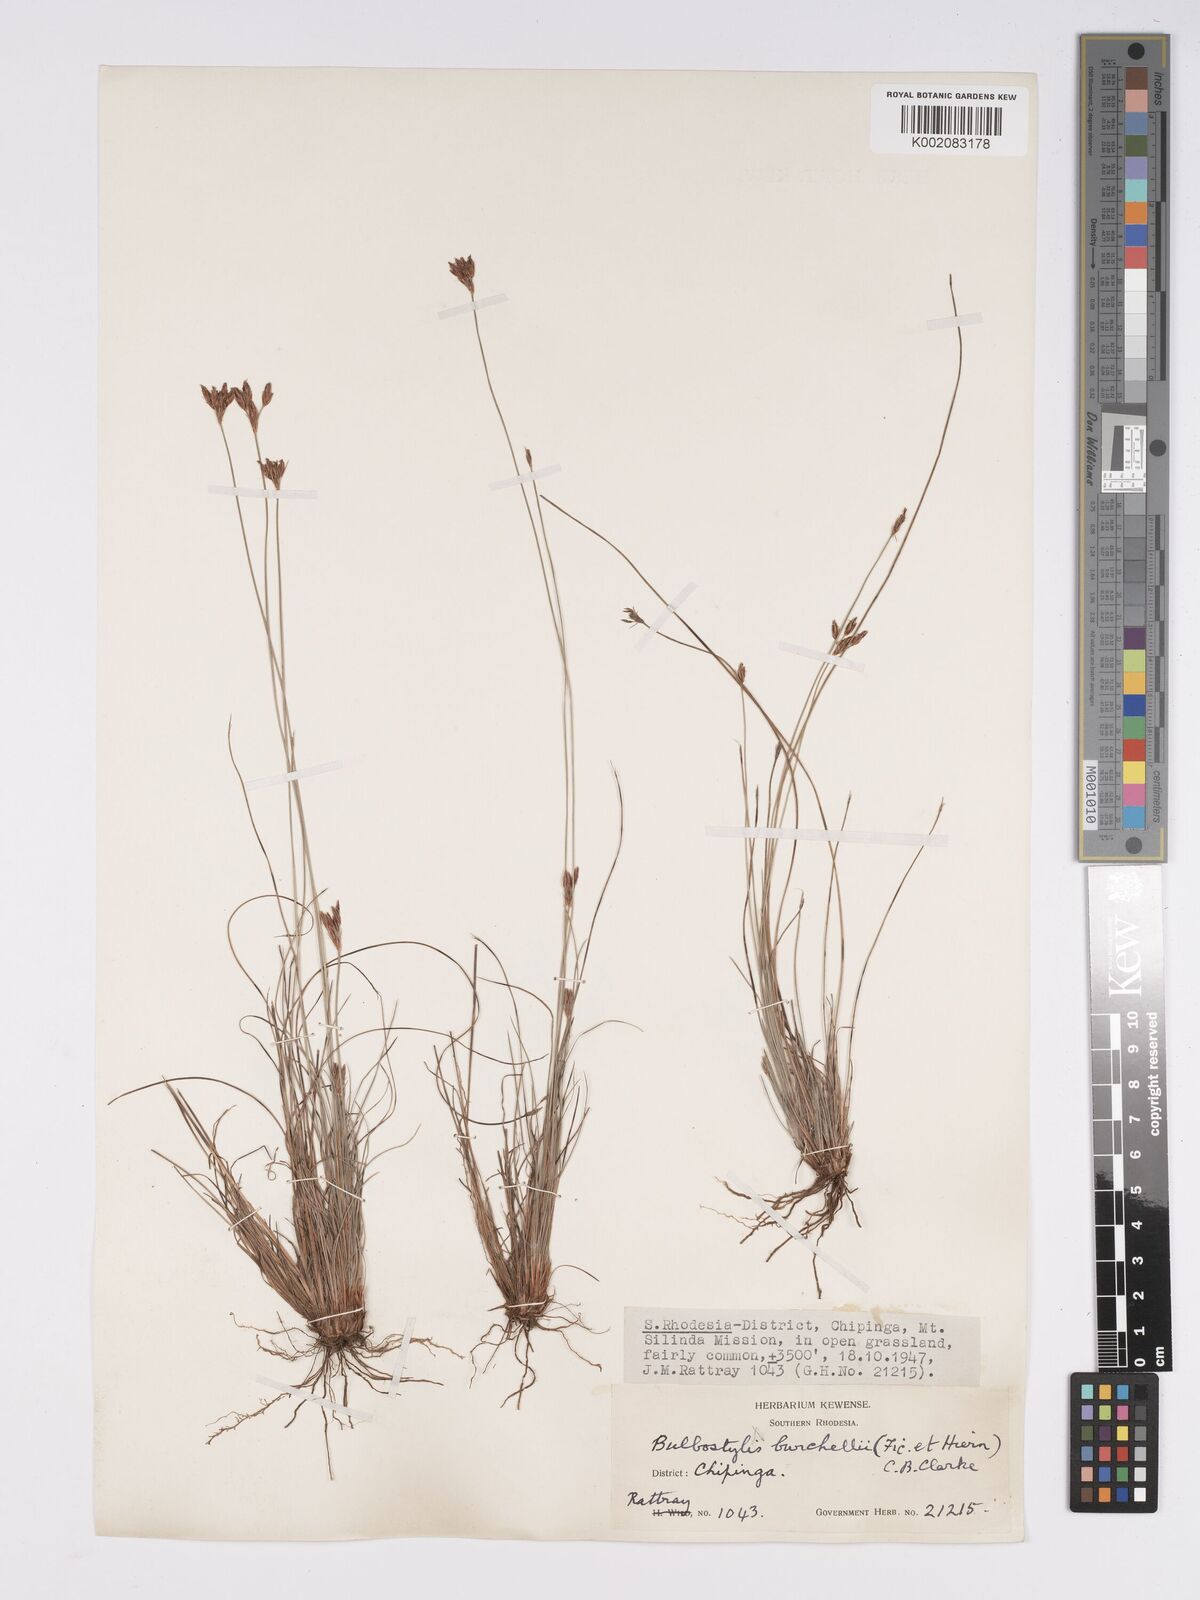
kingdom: Plantae
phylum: Tracheophyta
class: Liliopsida
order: Poales
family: Cyperaceae
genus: Bulbostylis
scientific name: Bulbostylis contexta
